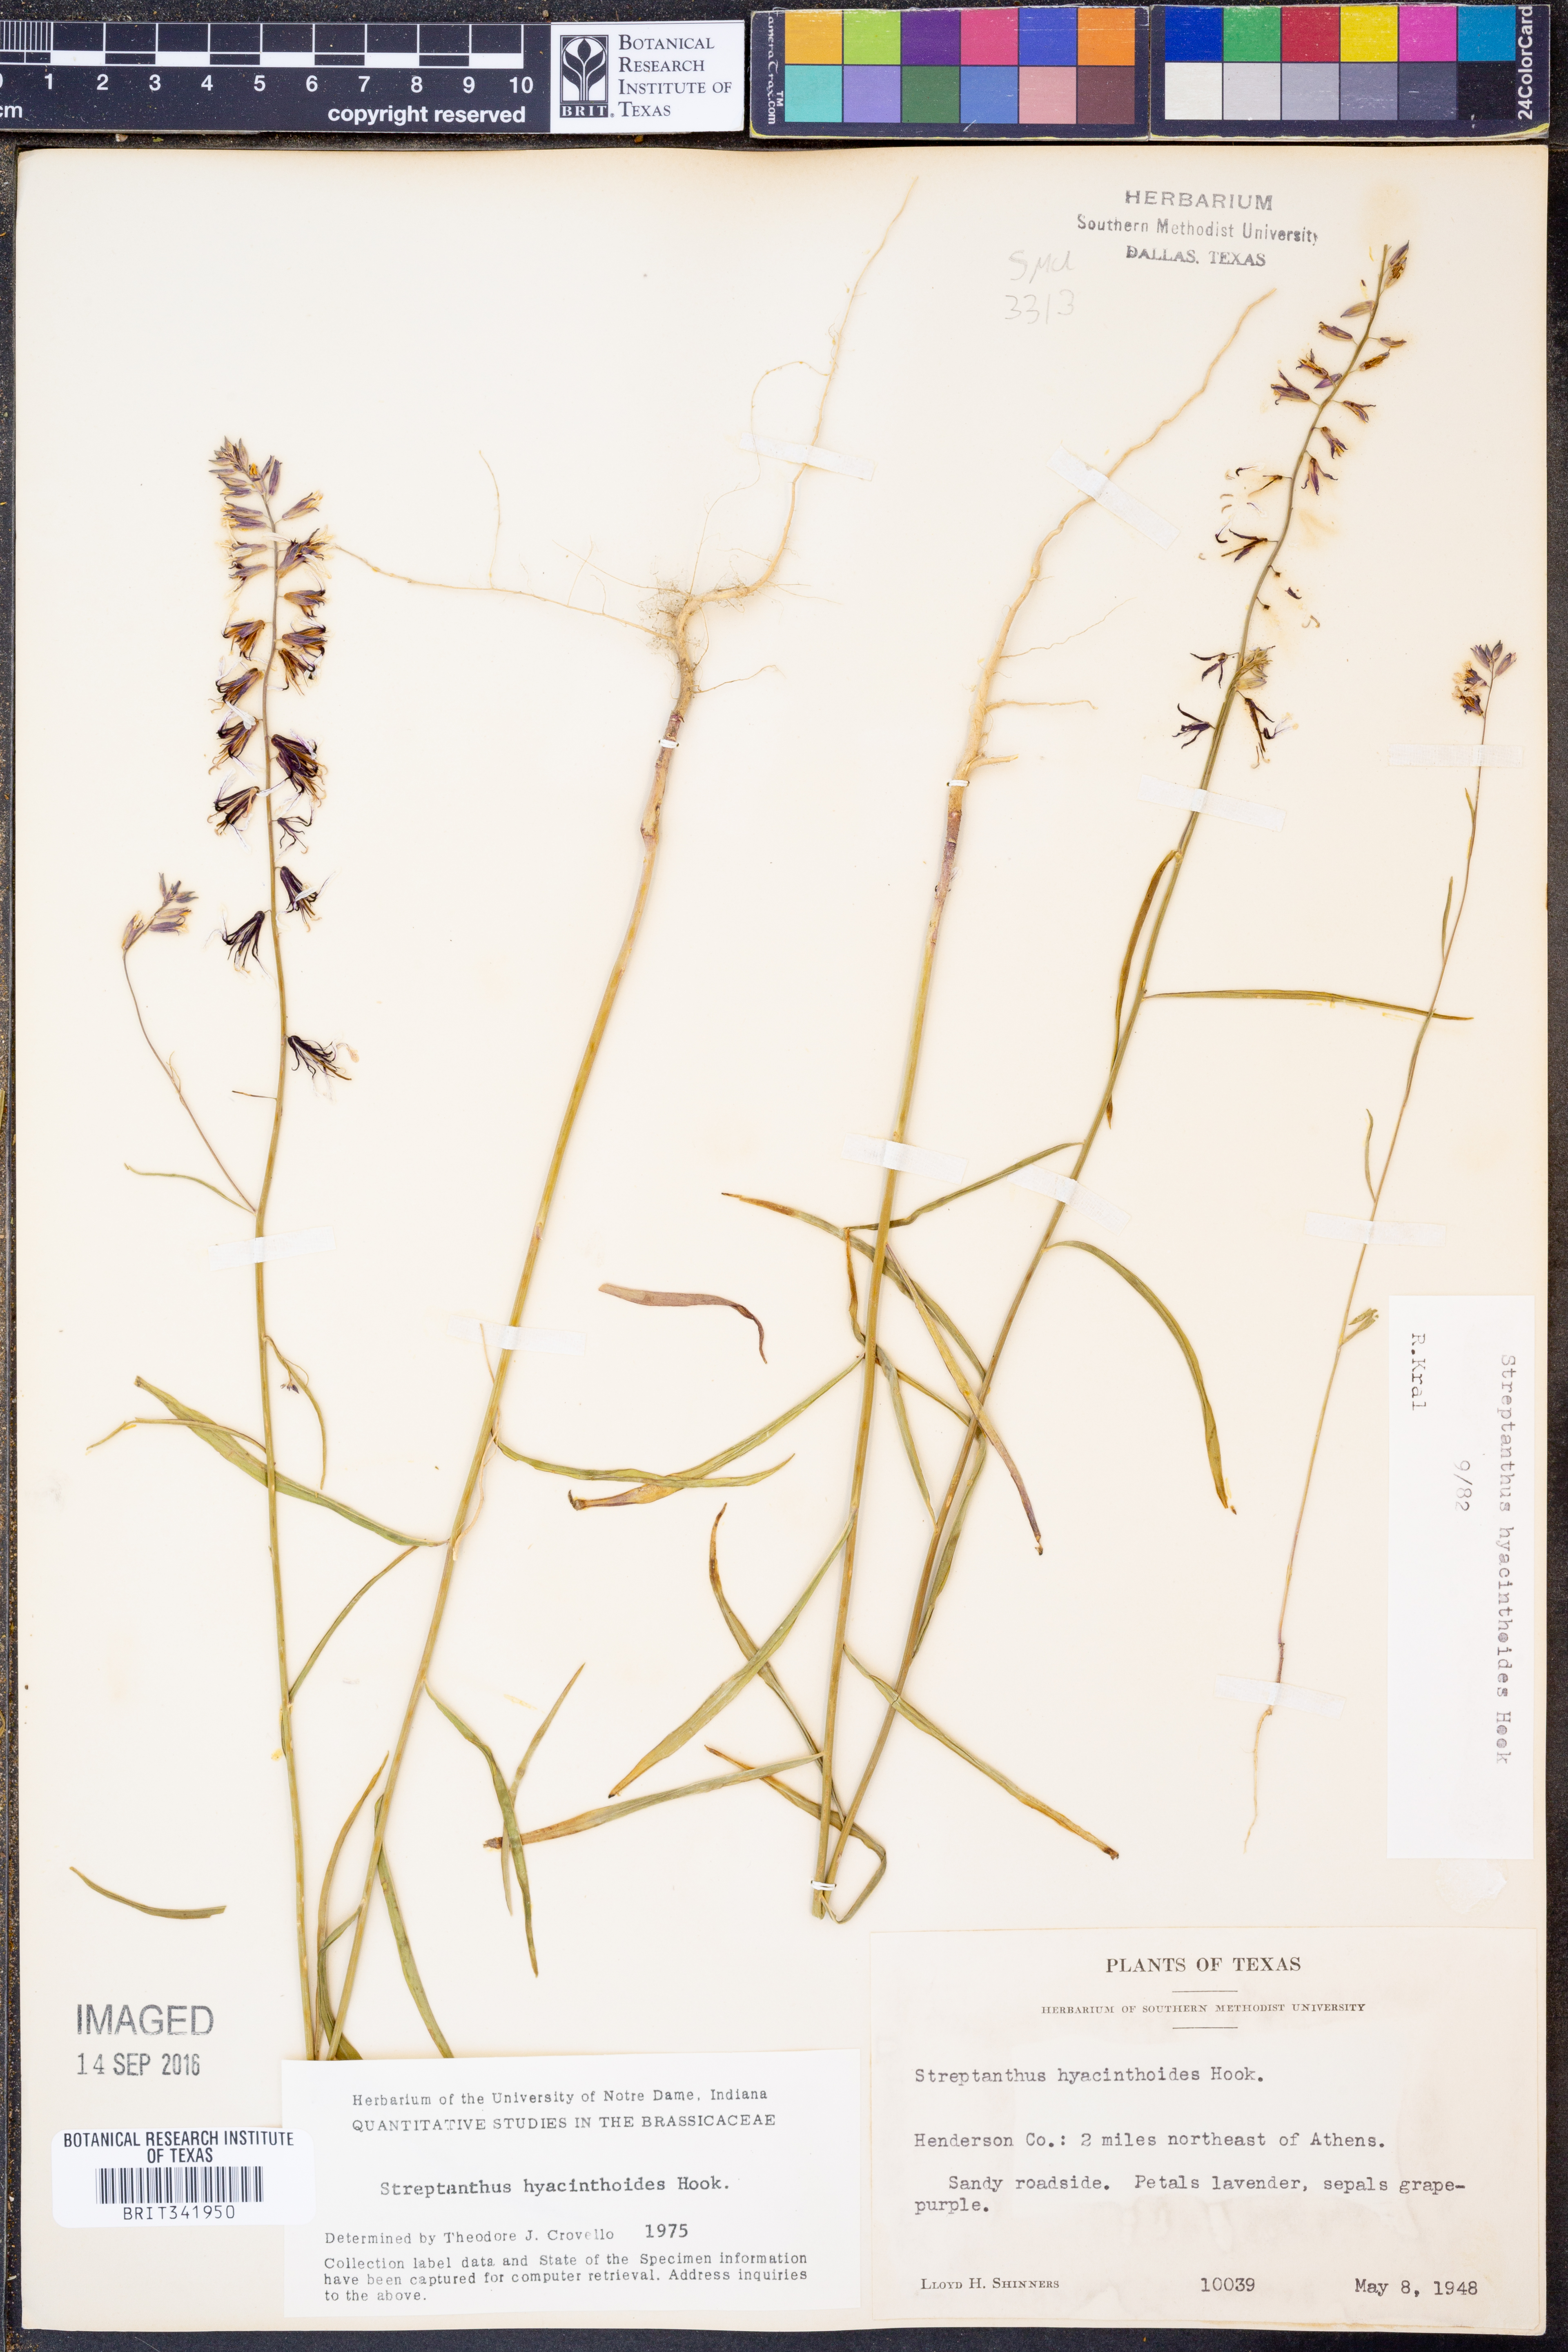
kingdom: Plantae
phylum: Tracheophyta
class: Magnoliopsida
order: Brassicales
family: Brassicaceae
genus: Streptanthus
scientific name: Streptanthus hyacinthoides
